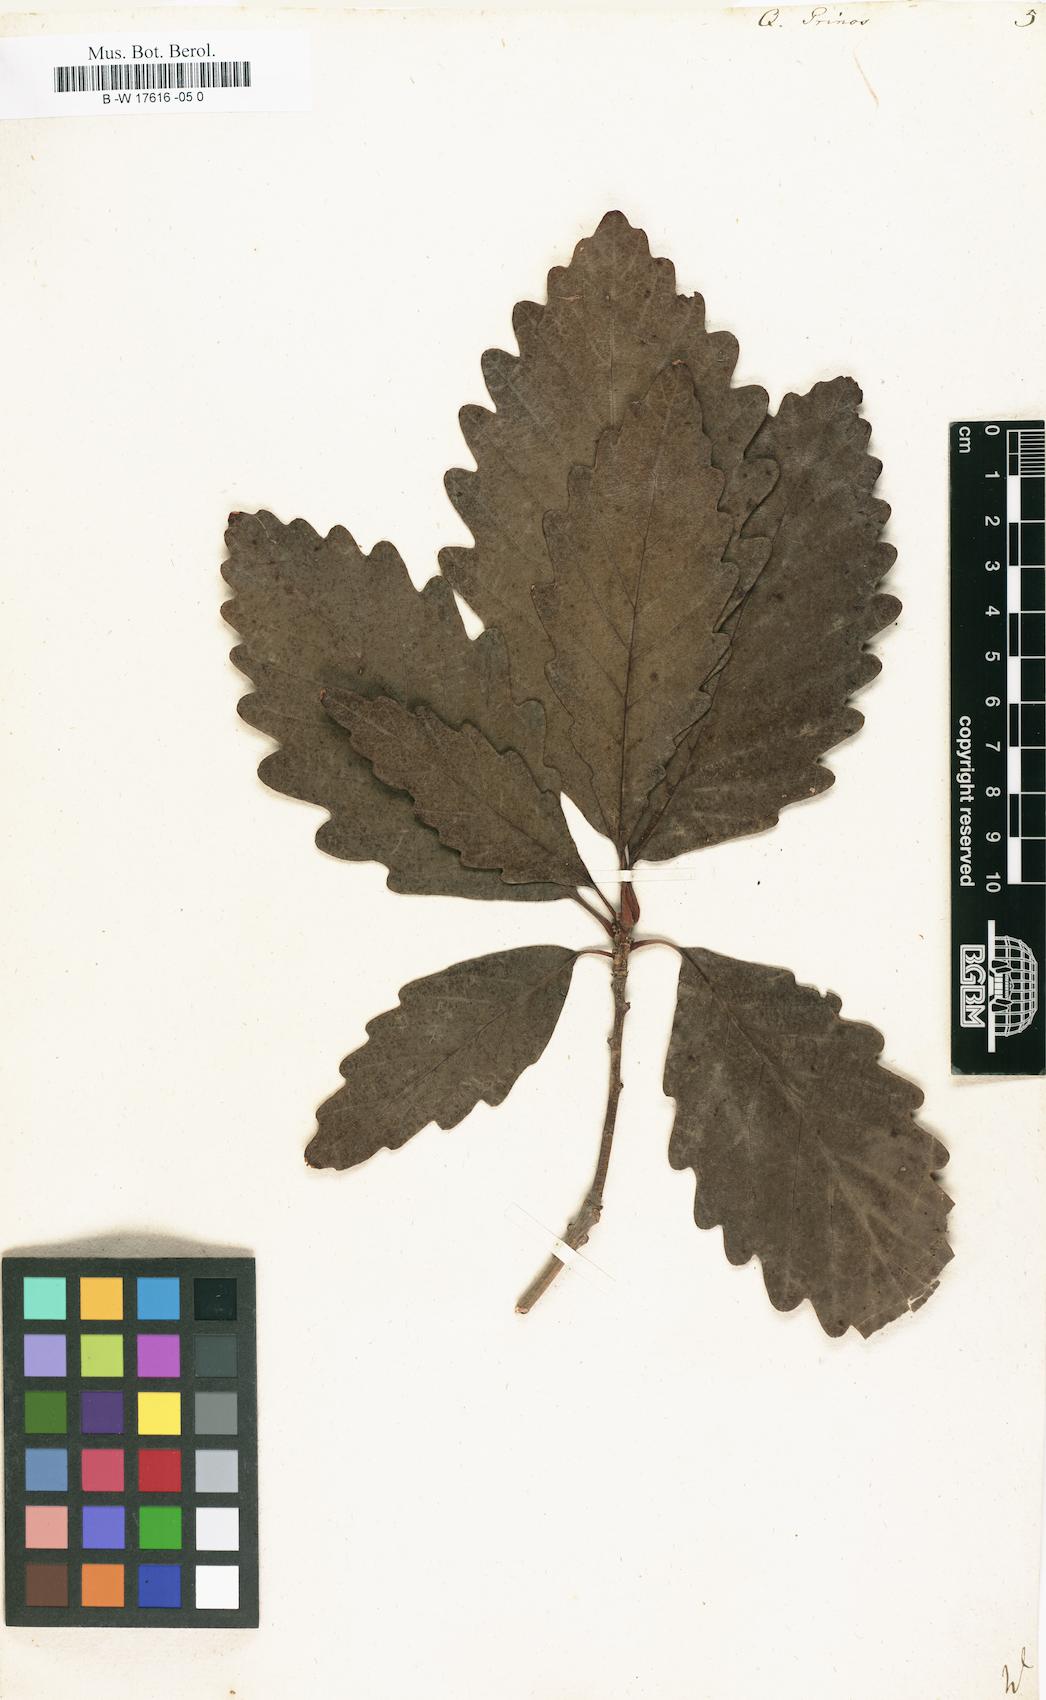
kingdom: Plantae
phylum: Tracheophyta
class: Magnoliopsida
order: Fagales
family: Fagaceae
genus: Quercus
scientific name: Quercus michauxii
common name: Swamp chestnut oak
